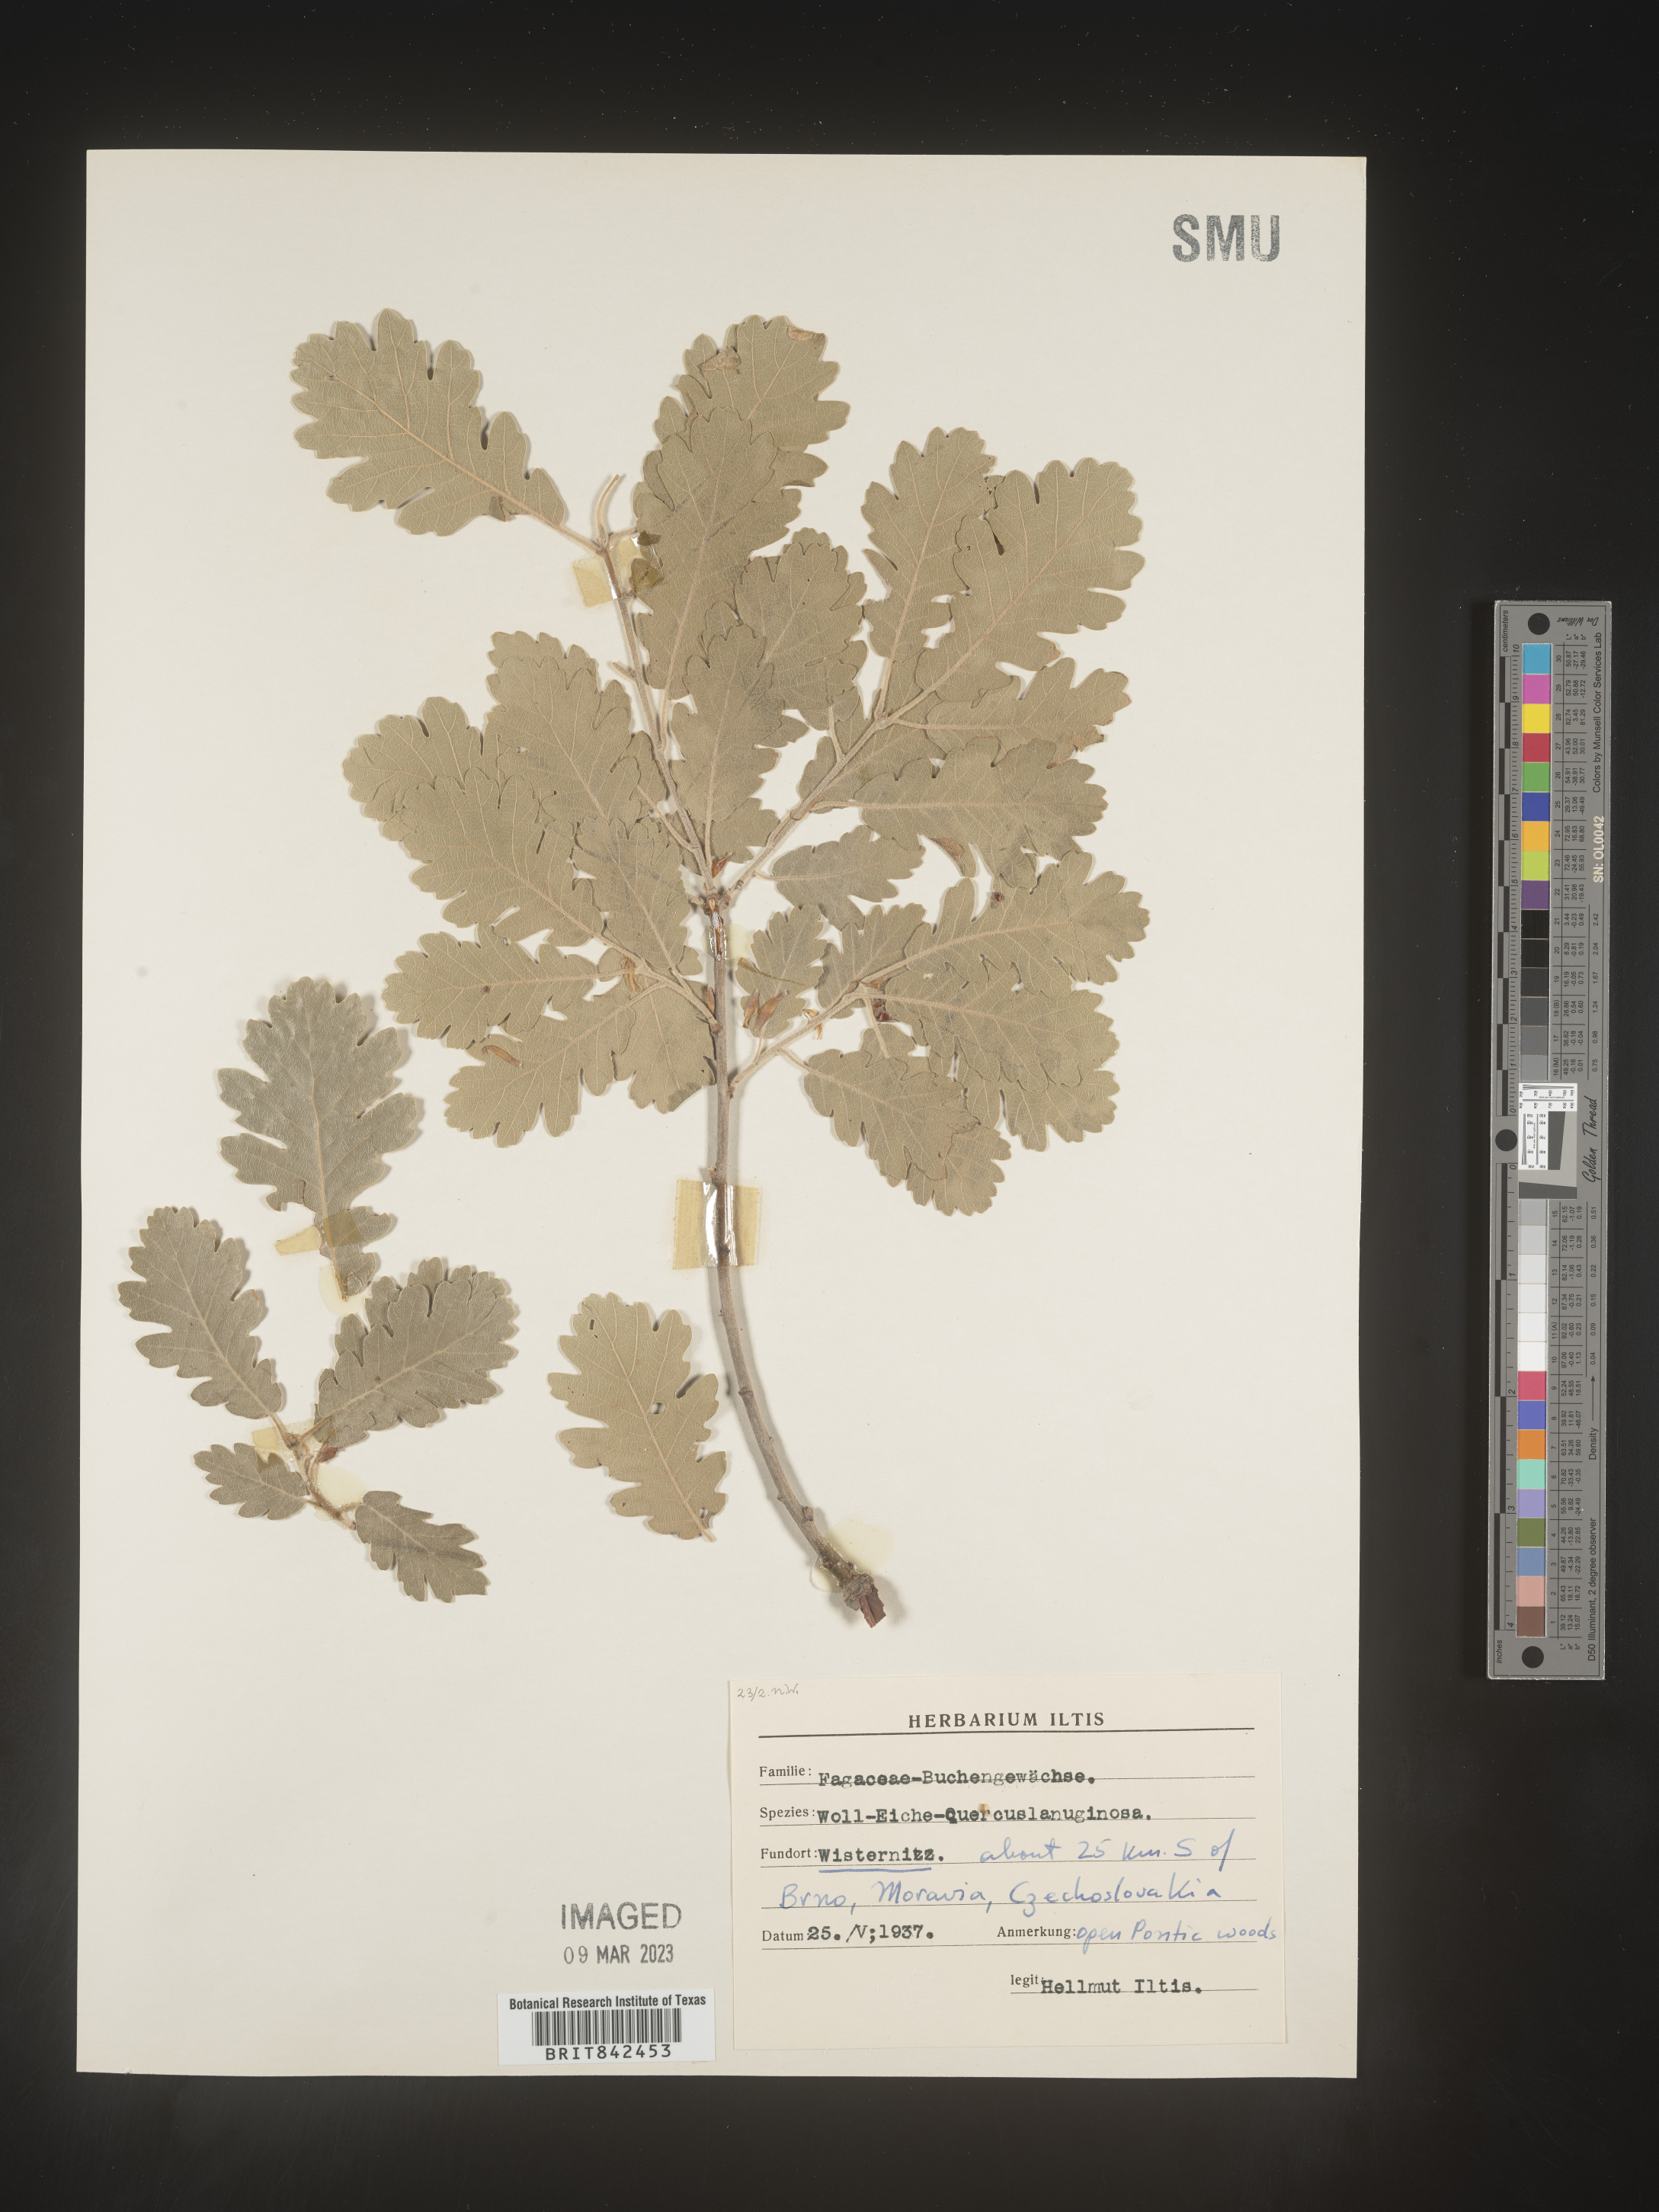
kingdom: Plantae
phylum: Tracheophyta
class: Magnoliopsida
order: Fagales
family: Fagaceae
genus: Quercus
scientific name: Quercus
